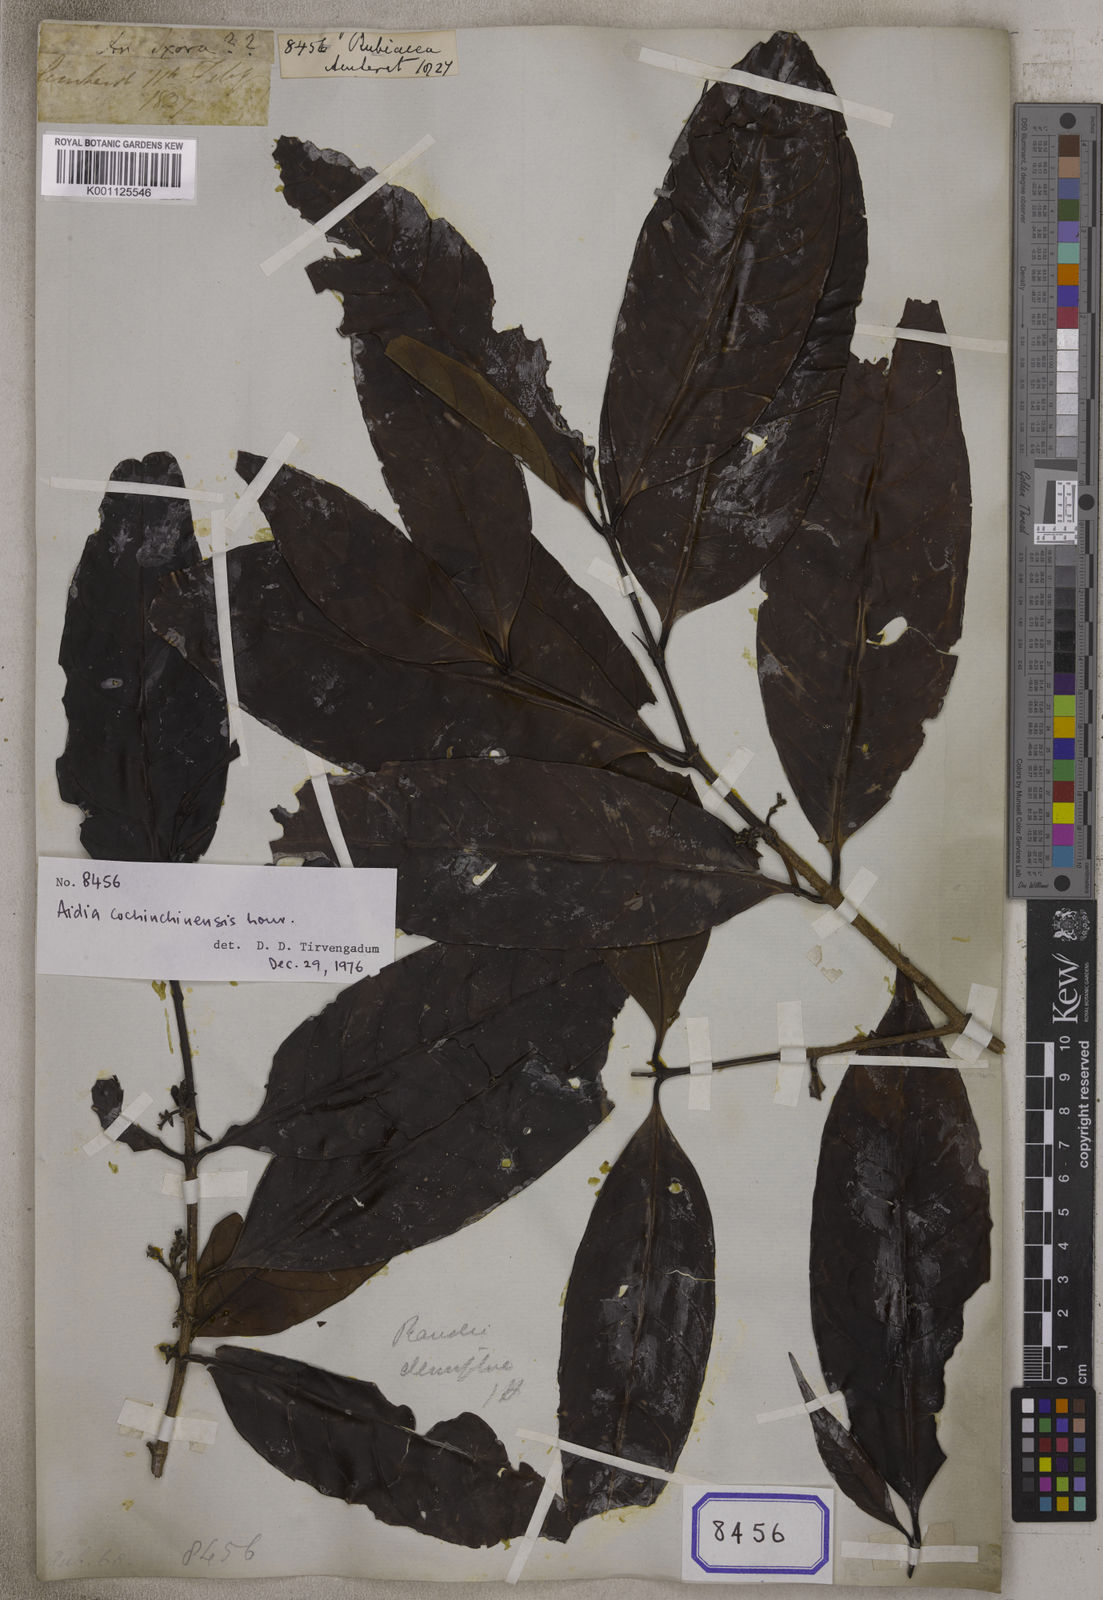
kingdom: Plantae
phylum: Tracheophyta
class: Magnoliopsida
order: Gentianales
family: Rubiaceae
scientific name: Rubiaceae
